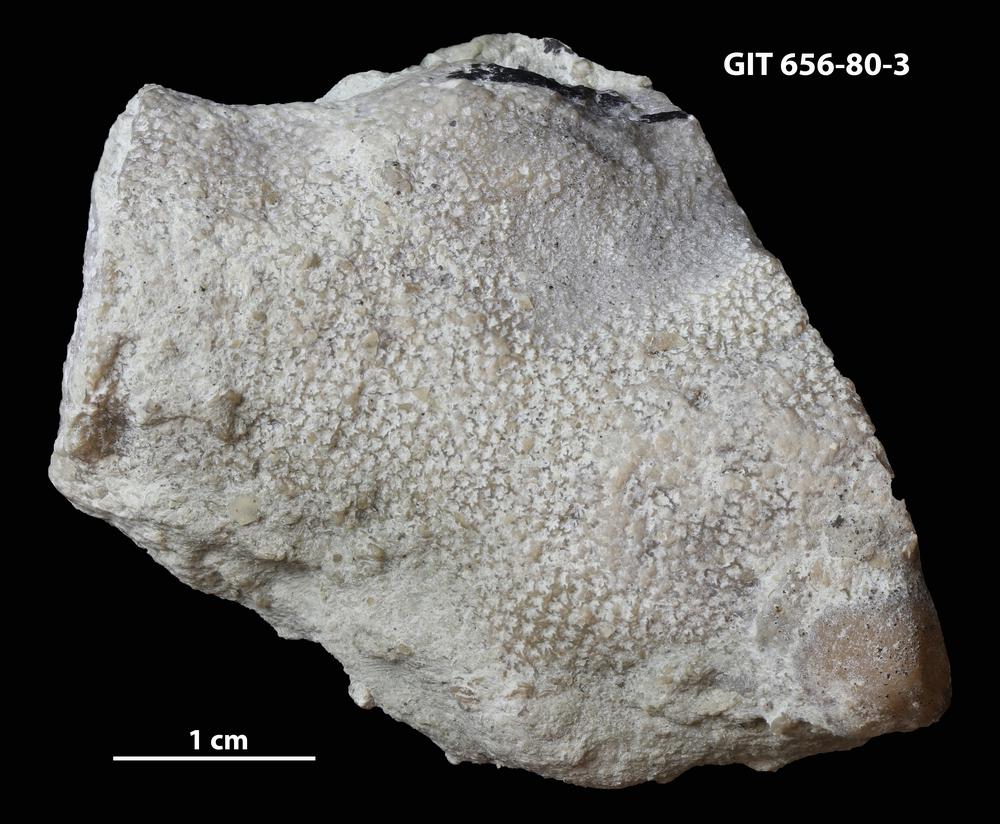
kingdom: Animalia
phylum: Cnidaria
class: Anthozoa
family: Theciidae
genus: Thecia
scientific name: Thecia
